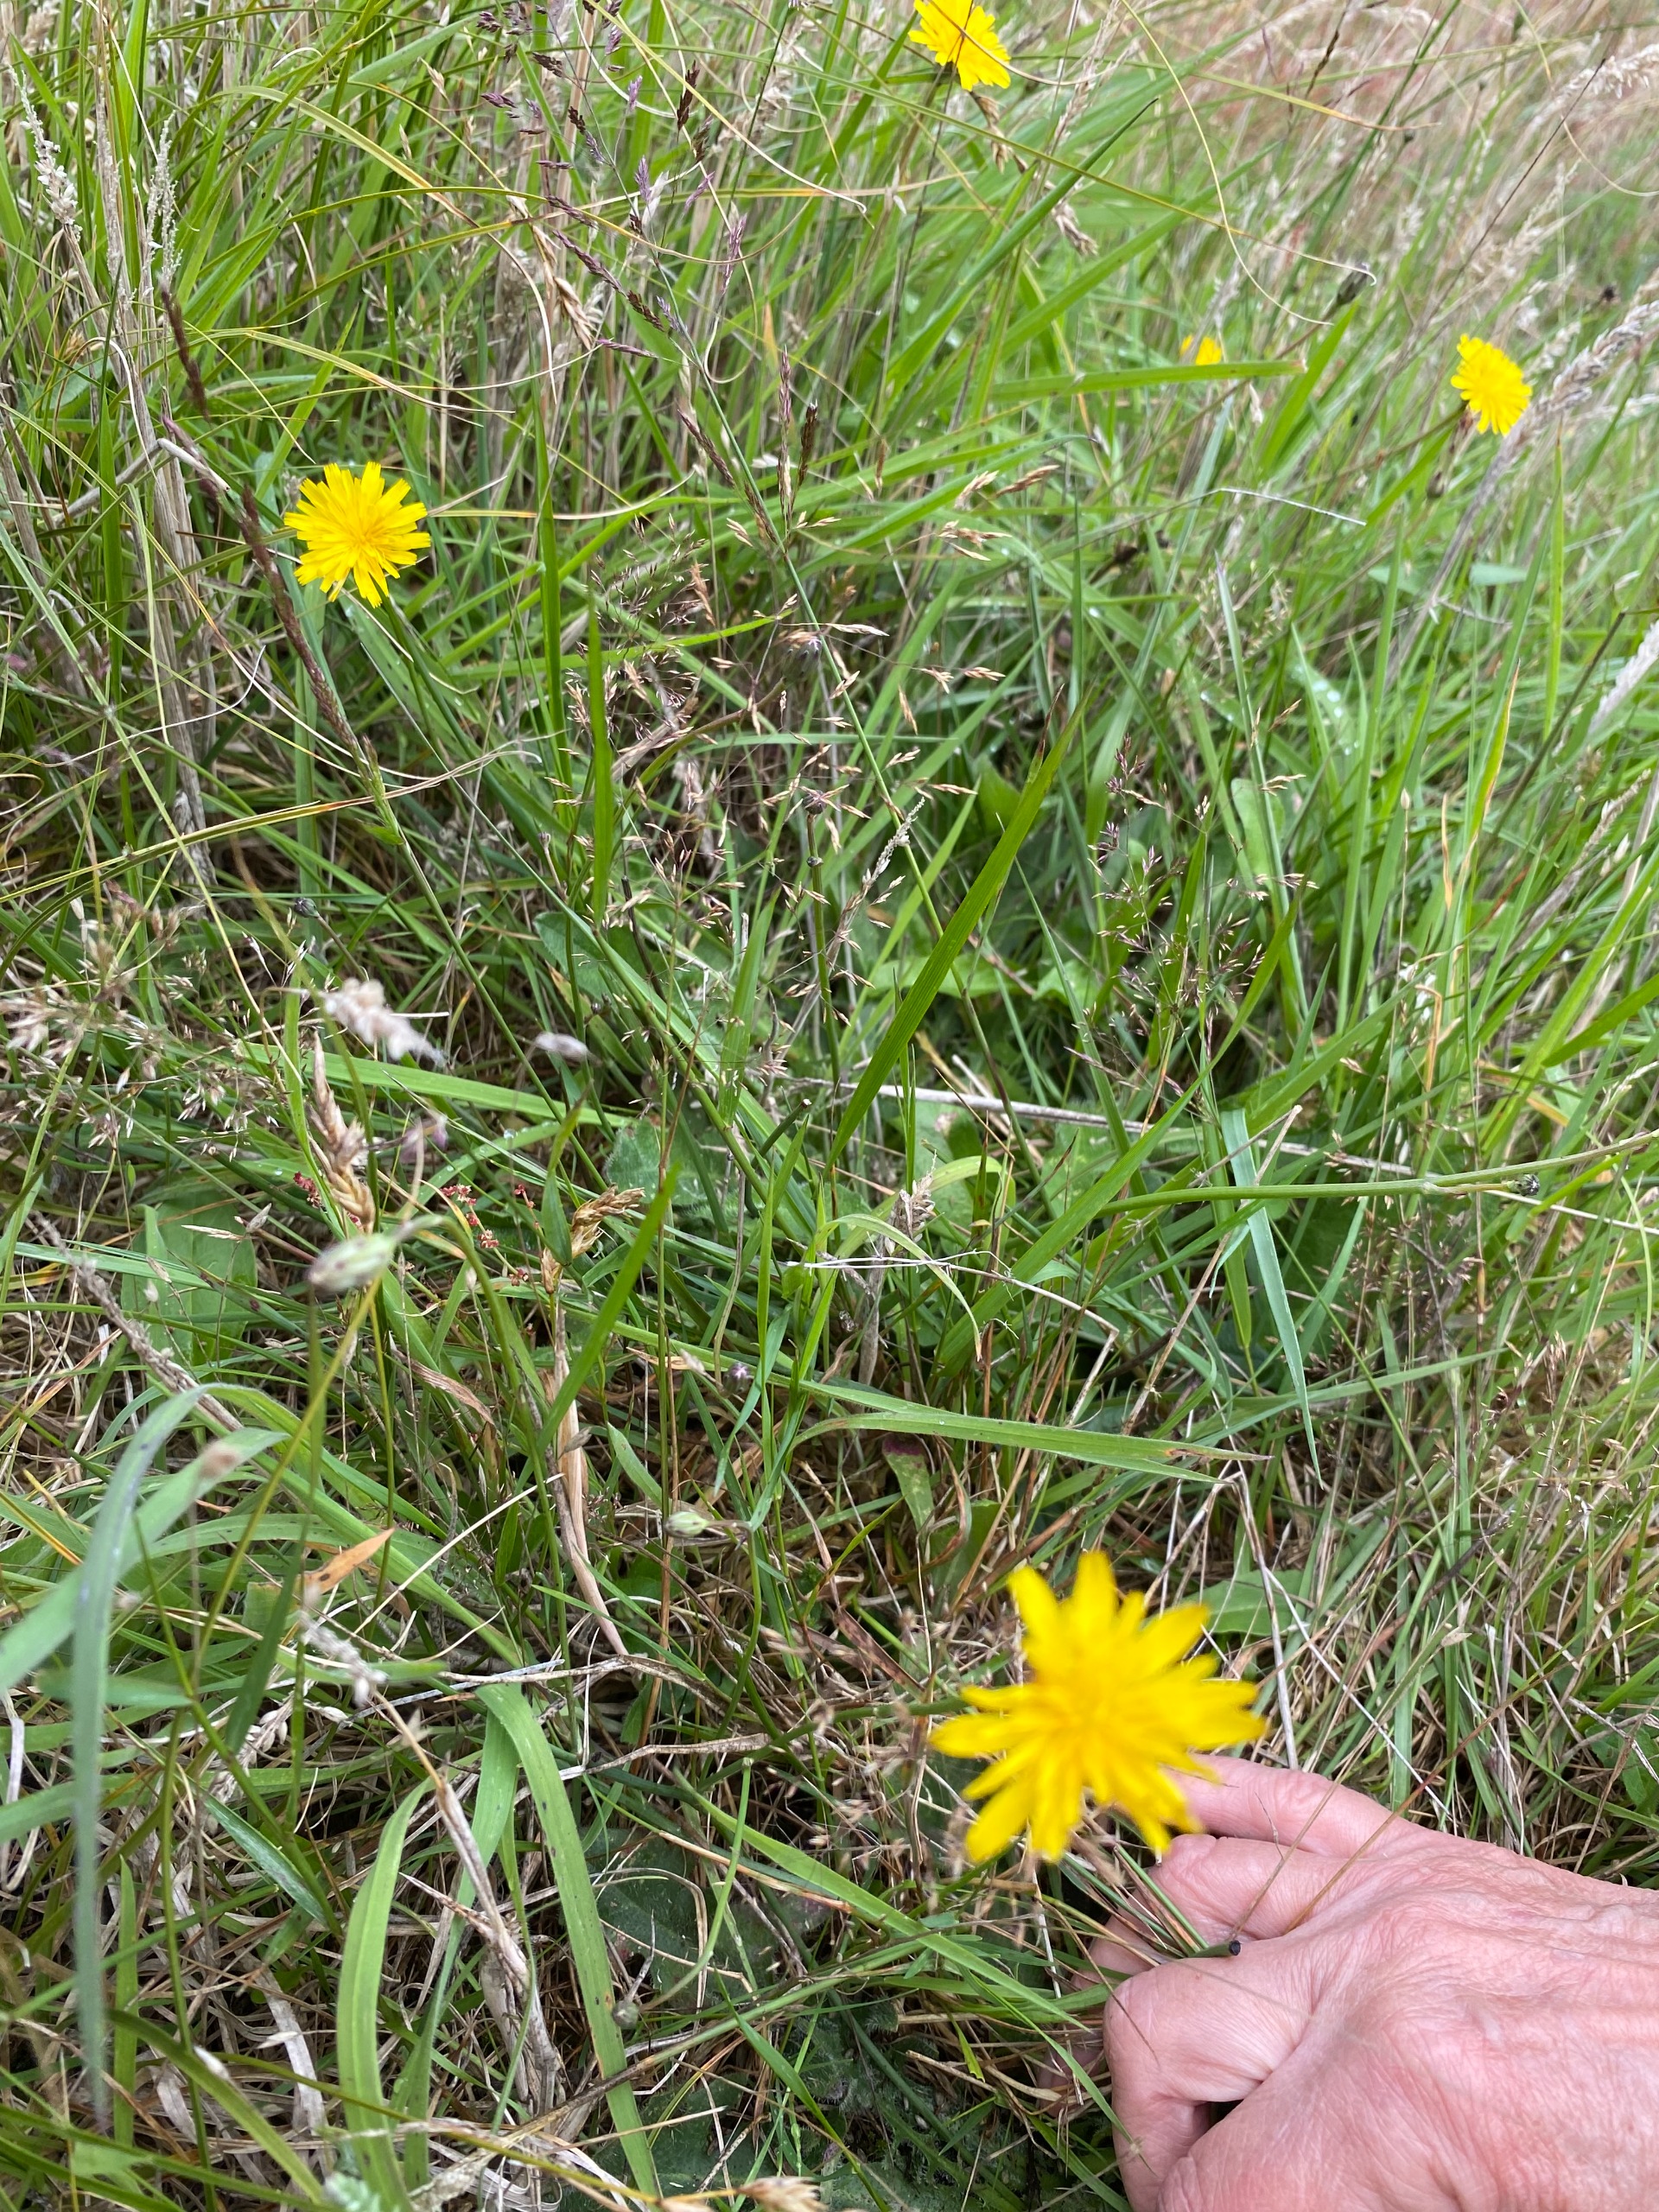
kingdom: Plantae
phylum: Tracheophyta
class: Magnoliopsida
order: Asterales
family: Asteraceae
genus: Hypochaeris
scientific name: Hypochaeris radicata
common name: Almindelig kongepen
